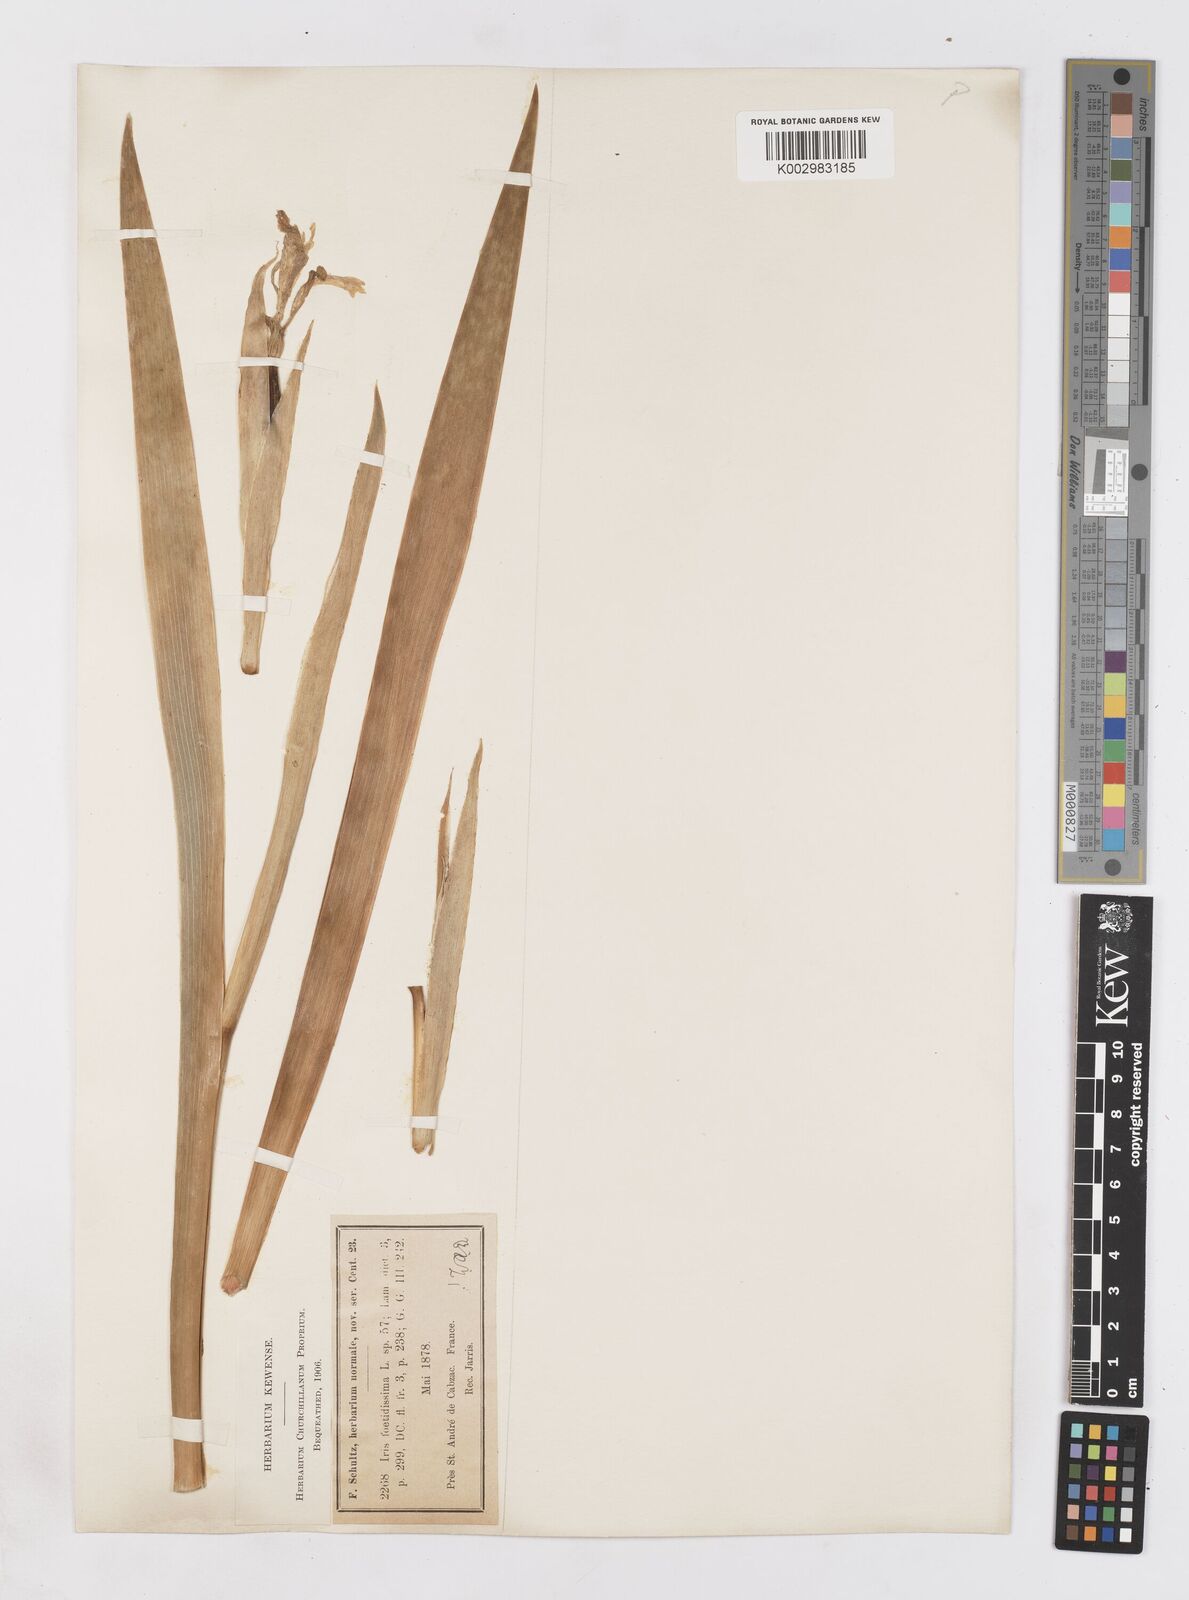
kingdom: Plantae
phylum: Tracheophyta
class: Liliopsida
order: Asparagales
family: Iridaceae
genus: Iris
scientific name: Iris foetidissima
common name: Stinking iris
